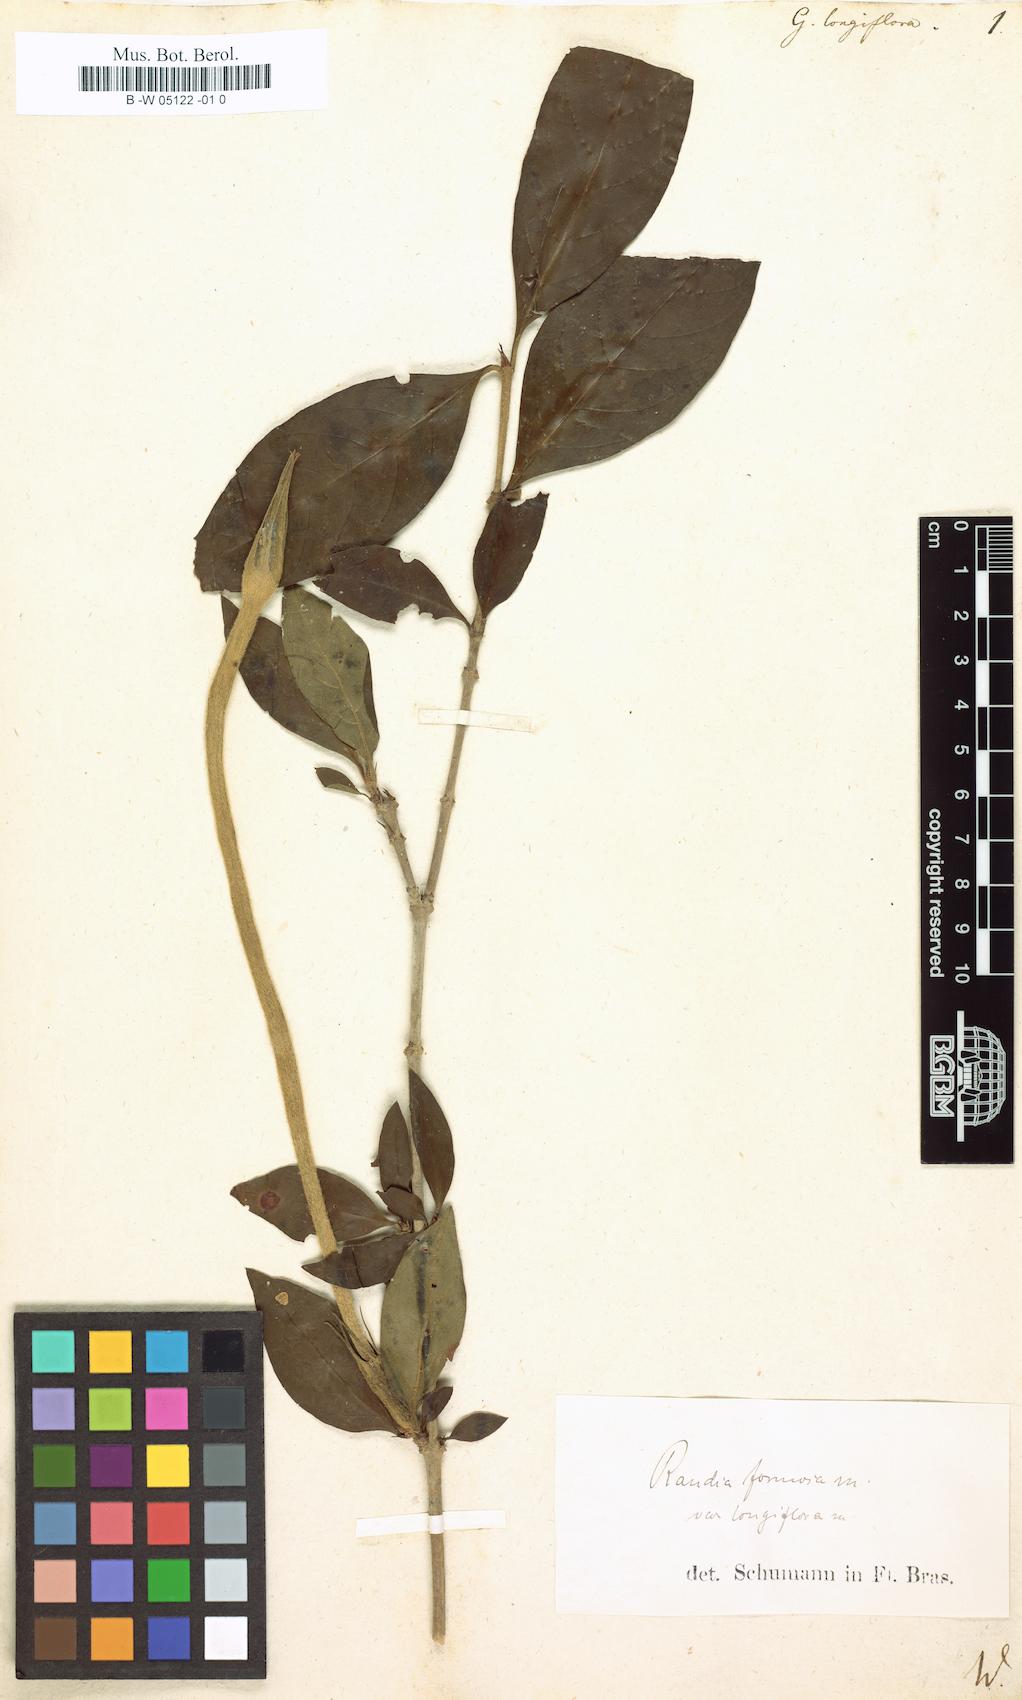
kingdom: Plantae
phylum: Tracheophyta
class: Magnoliopsida
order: Gentianales
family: Rubiaceae
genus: Rosenbergiodendron
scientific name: Rosenbergiodendron longiflorum
